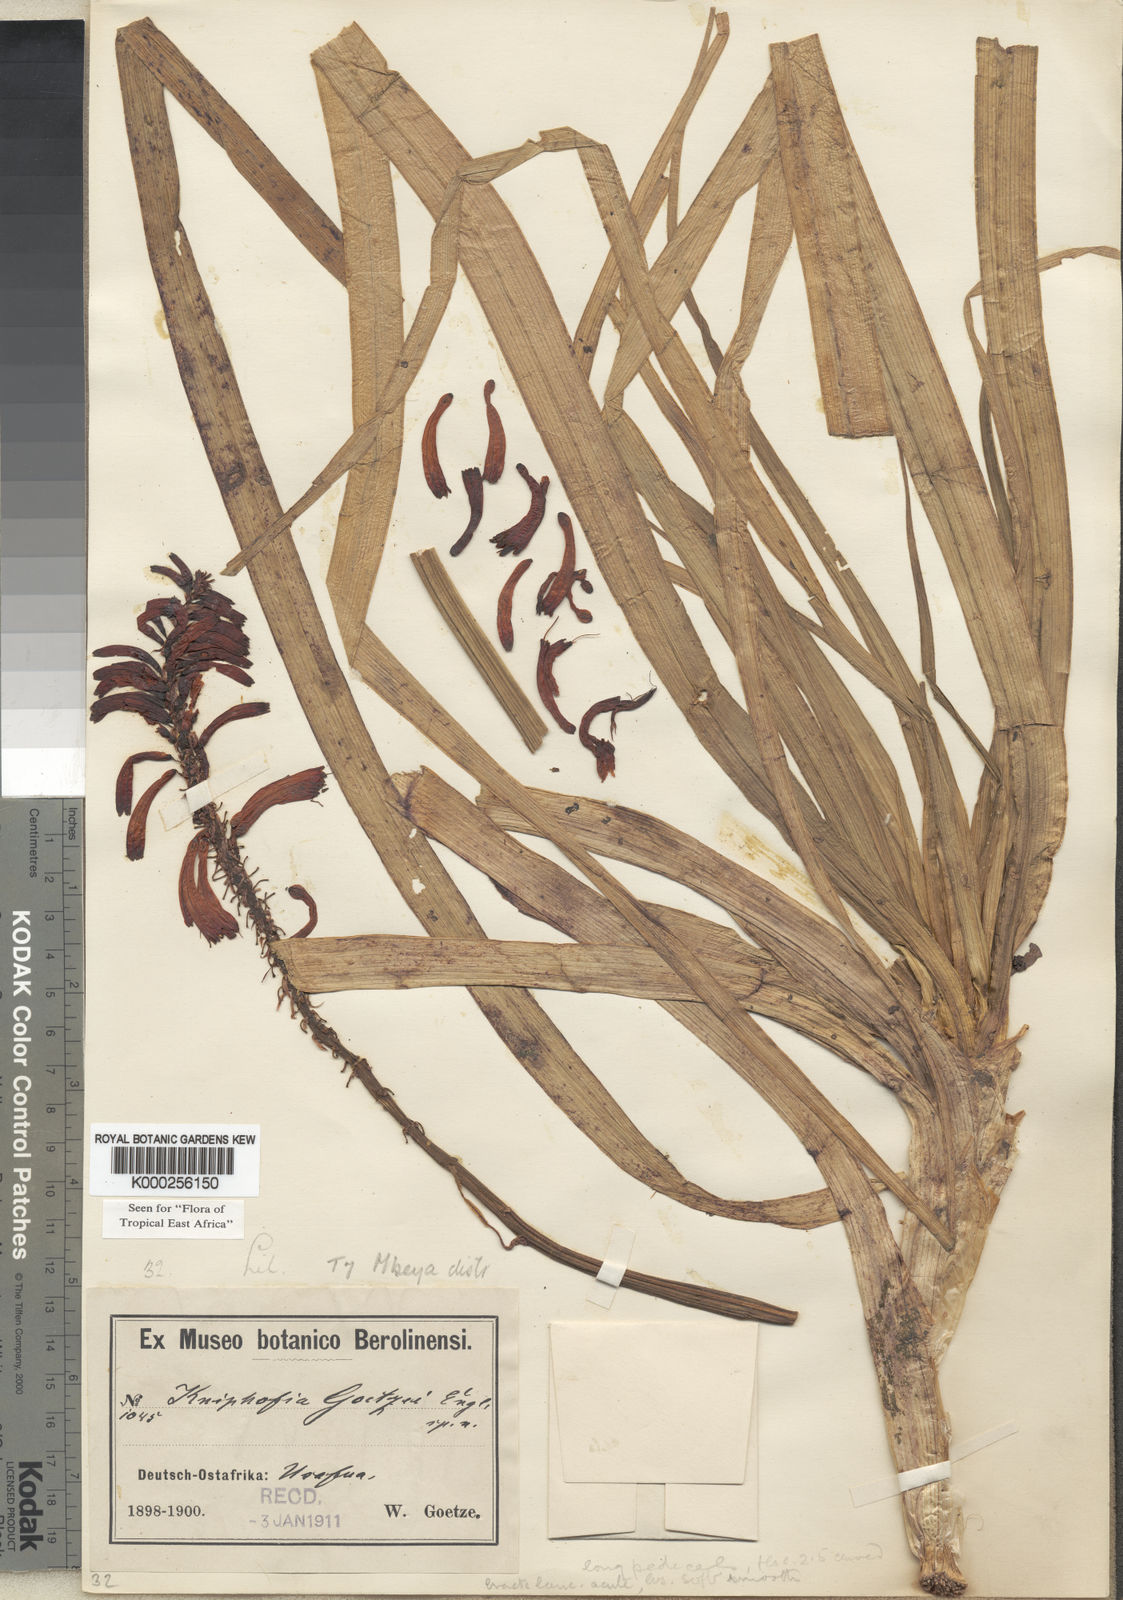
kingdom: Plantae
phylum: Tracheophyta
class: Liliopsida
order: Asparagales
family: Asphodelaceae
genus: Kniphofia
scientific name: Kniphofia goetzei
